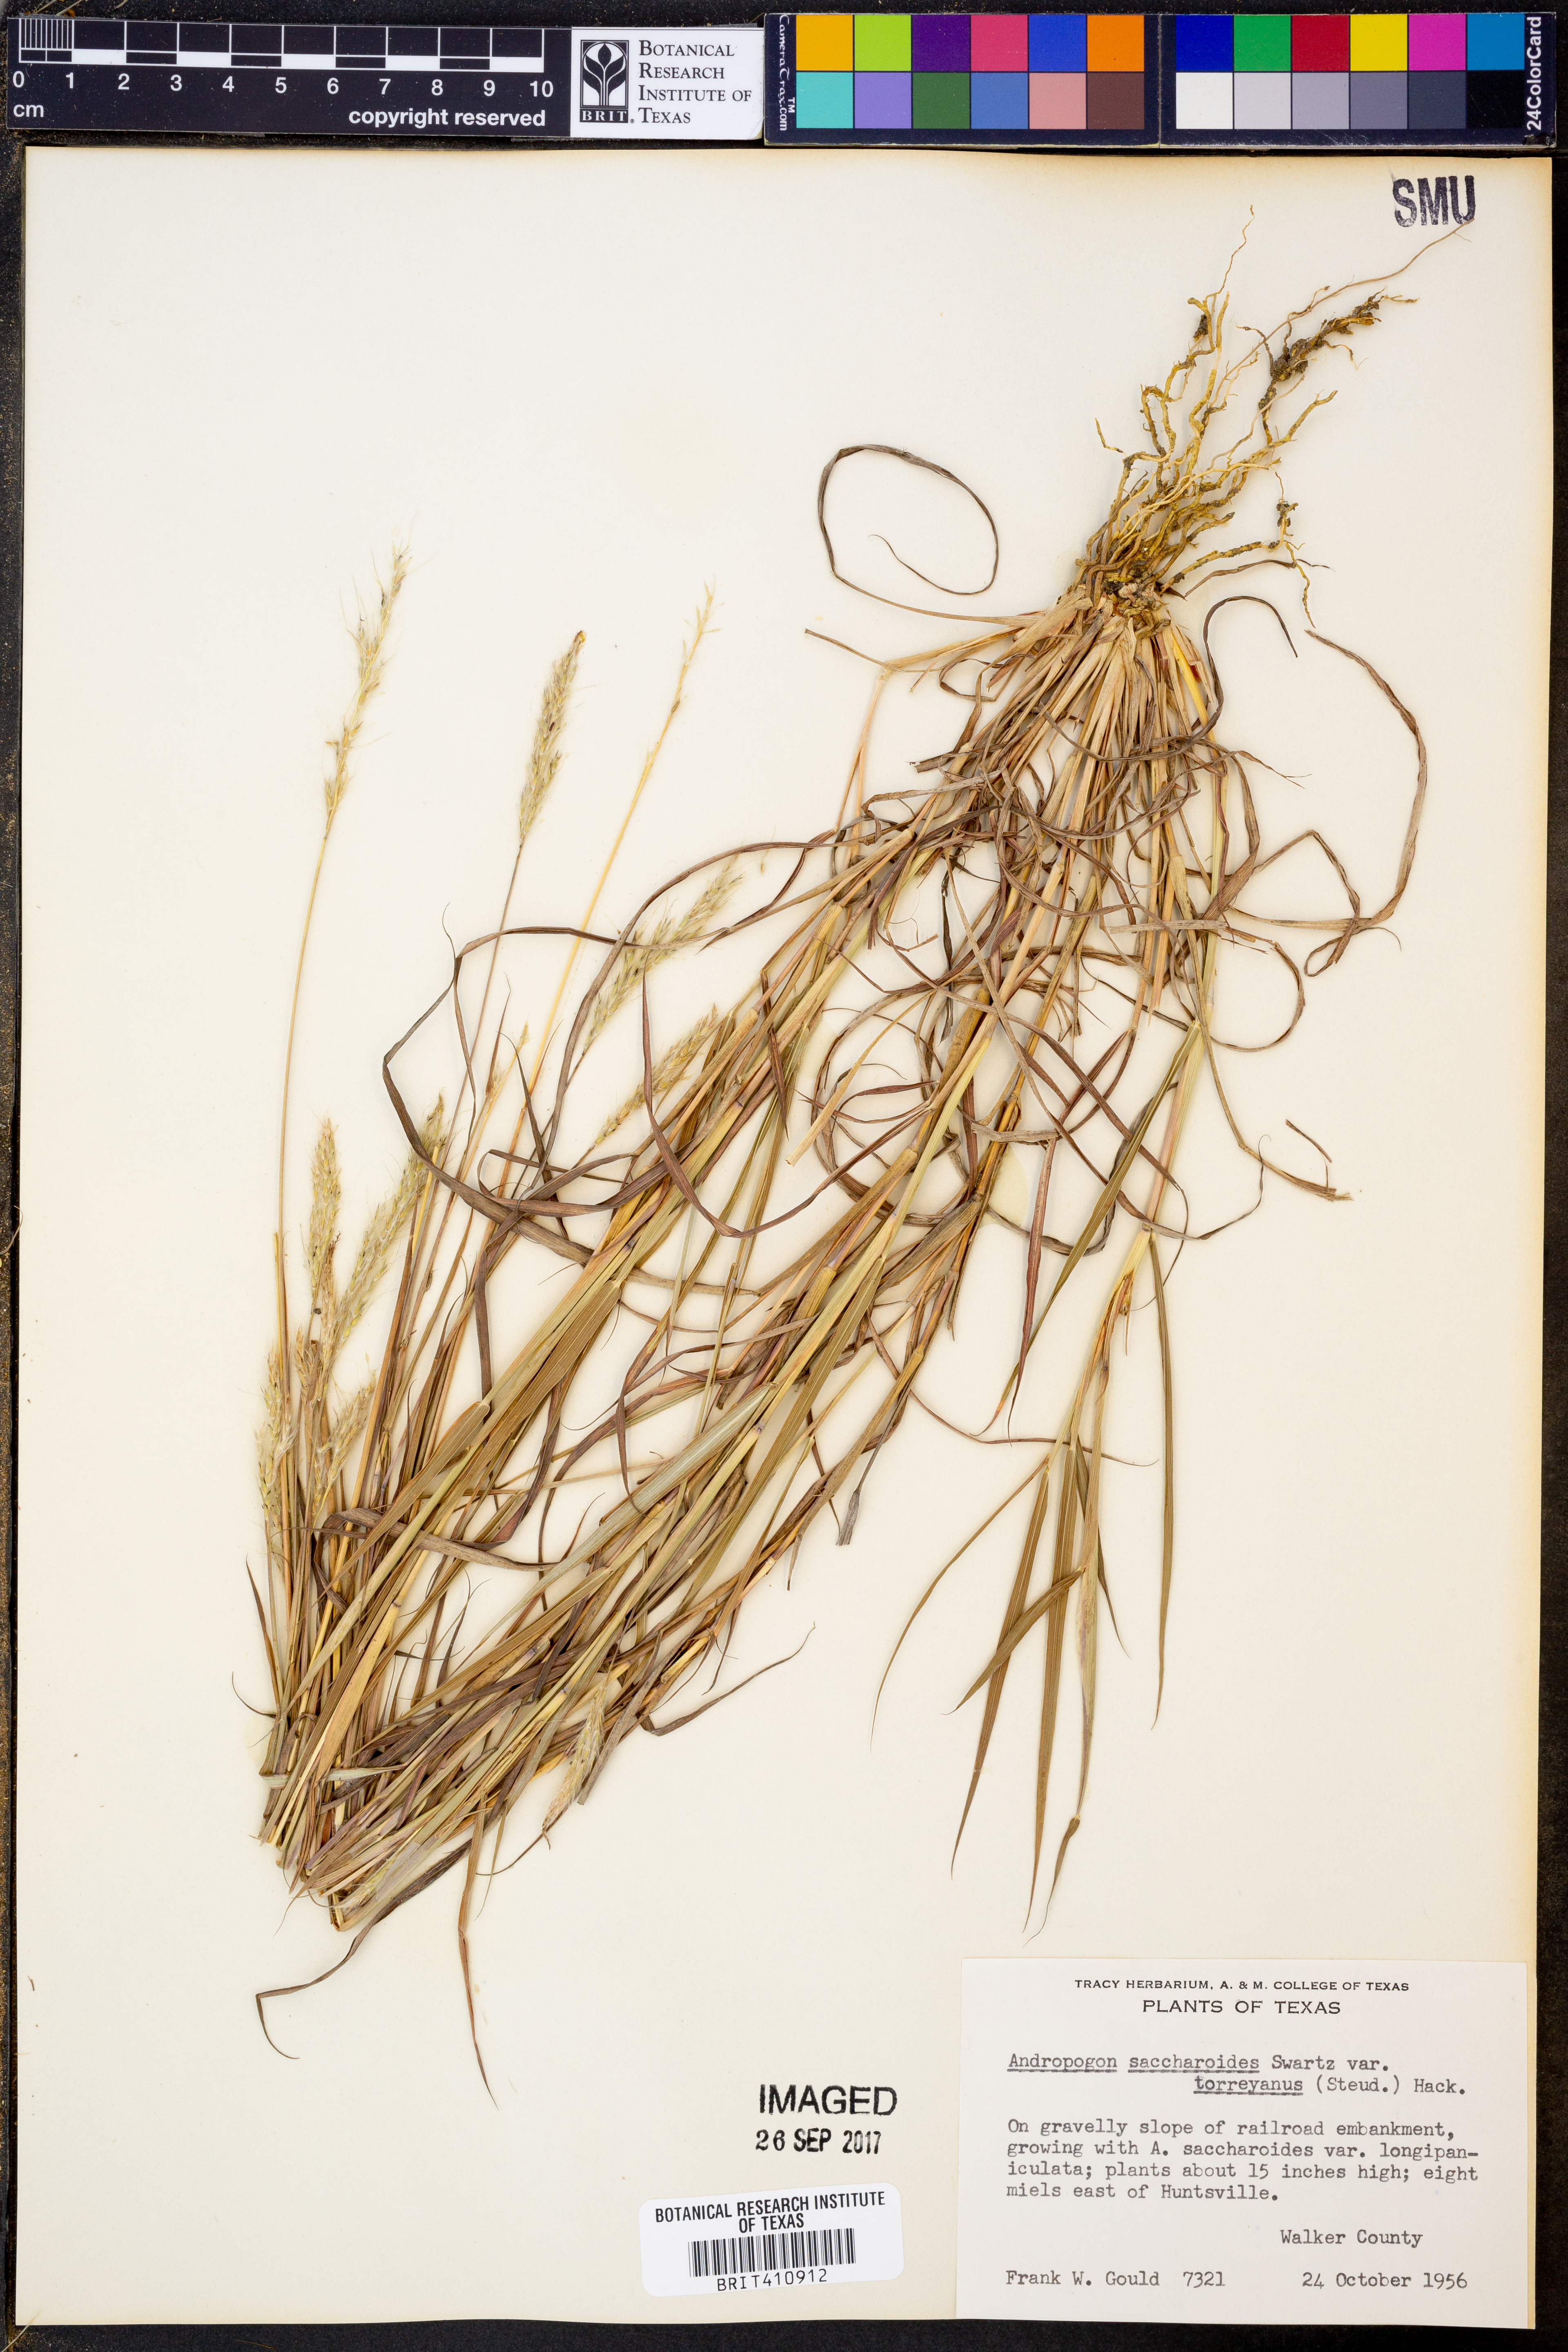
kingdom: Plantae
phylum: Tracheophyta
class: Liliopsida
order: Poales
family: Poaceae
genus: Bothriochloa
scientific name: Bothriochloa torreyana
